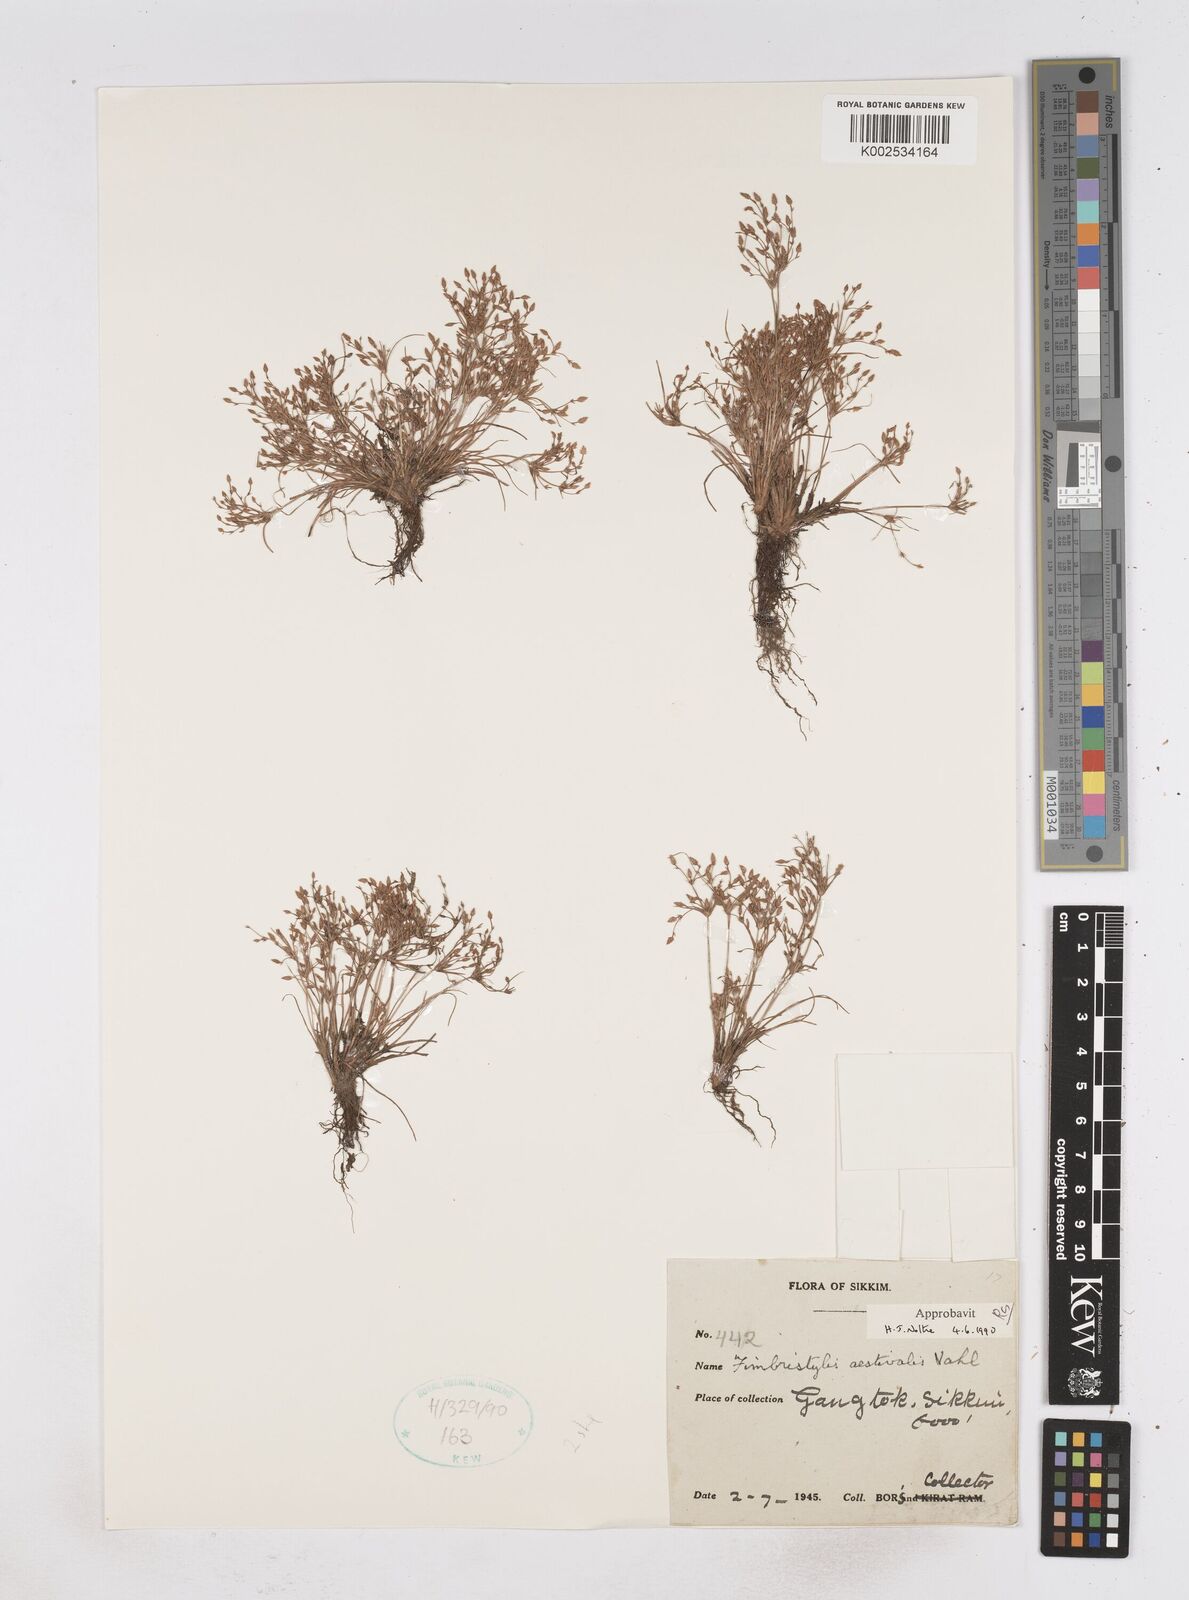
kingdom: Plantae
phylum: Tracheophyta
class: Liliopsida
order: Poales
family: Cyperaceae
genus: Fimbristylis
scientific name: Fimbristylis aestivalis
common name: Summer fimbry
